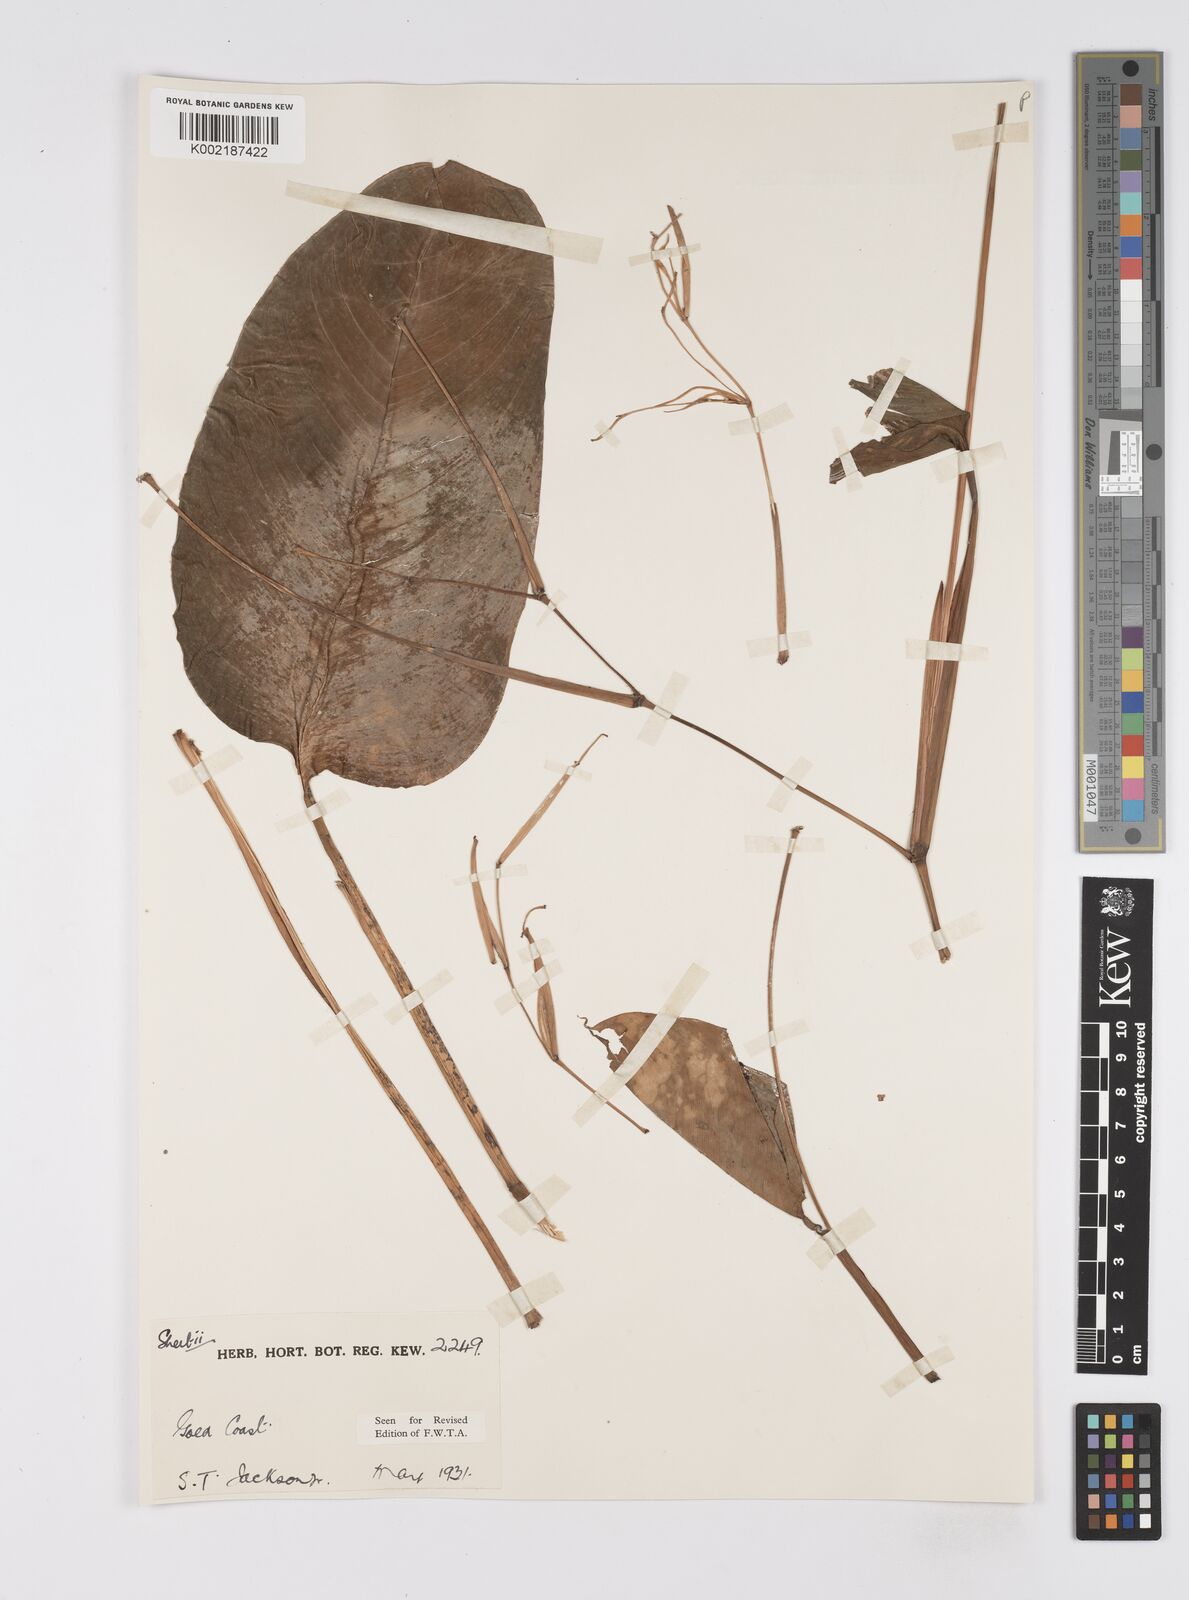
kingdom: Plantae
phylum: Tracheophyta
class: Liliopsida
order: Zingiberales
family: Marantaceae
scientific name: Marantaceae
